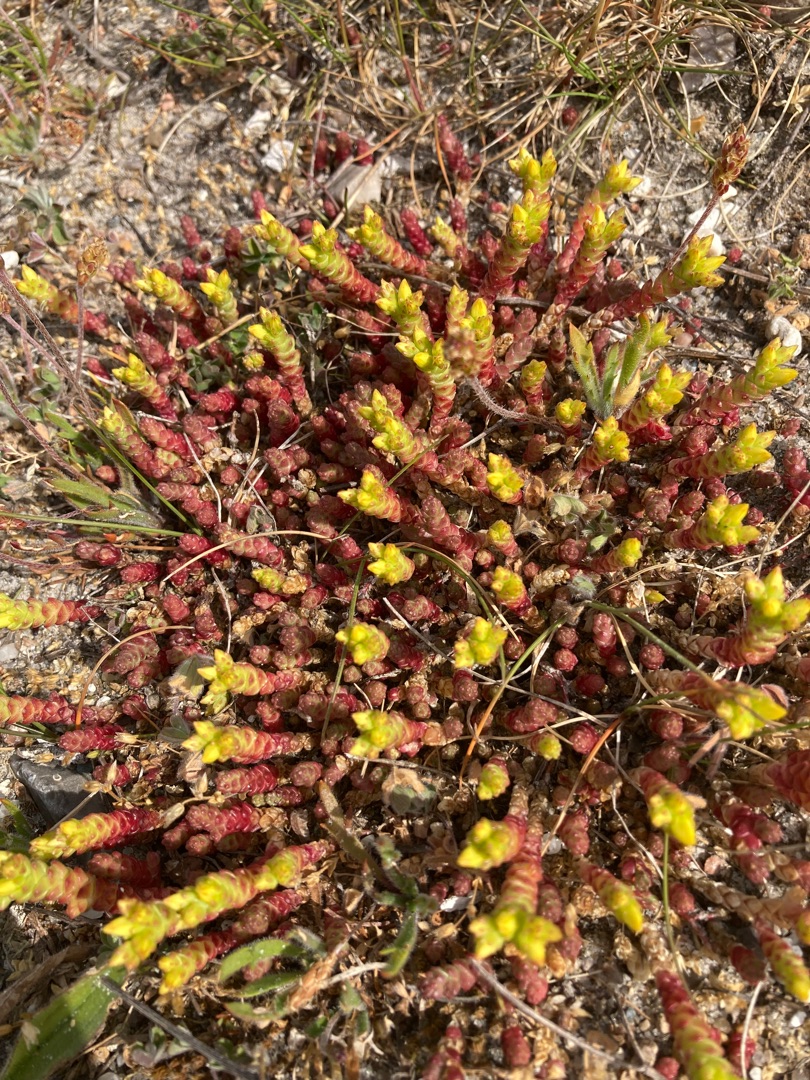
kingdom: Plantae
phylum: Tracheophyta
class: Magnoliopsida
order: Saxifragales
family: Crassulaceae
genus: Sedum
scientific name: Sedum acre
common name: Bidende stenurt
